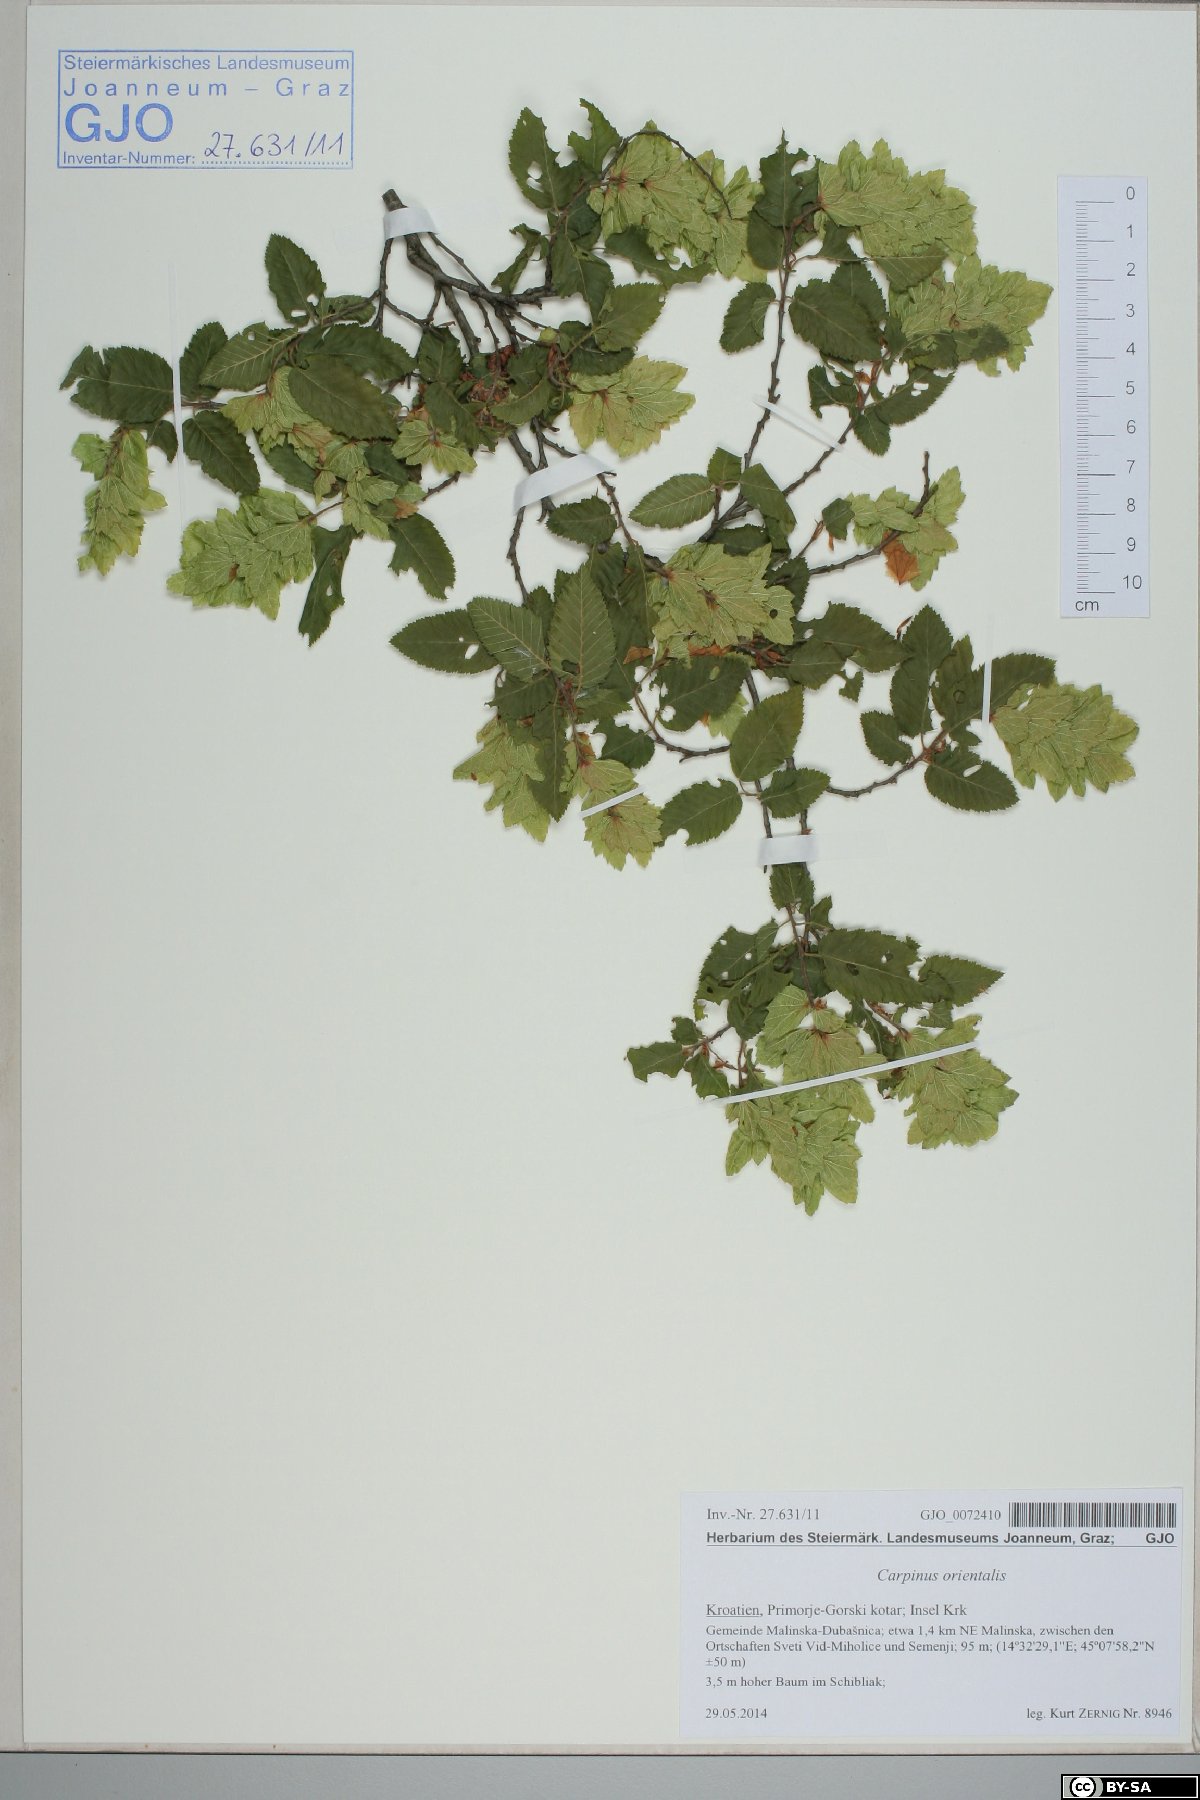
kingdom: Plantae
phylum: Tracheophyta
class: Magnoliopsida
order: Fagales
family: Betulaceae
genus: Carpinus
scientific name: Carpinus orientalis
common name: Eastern hornbeam
